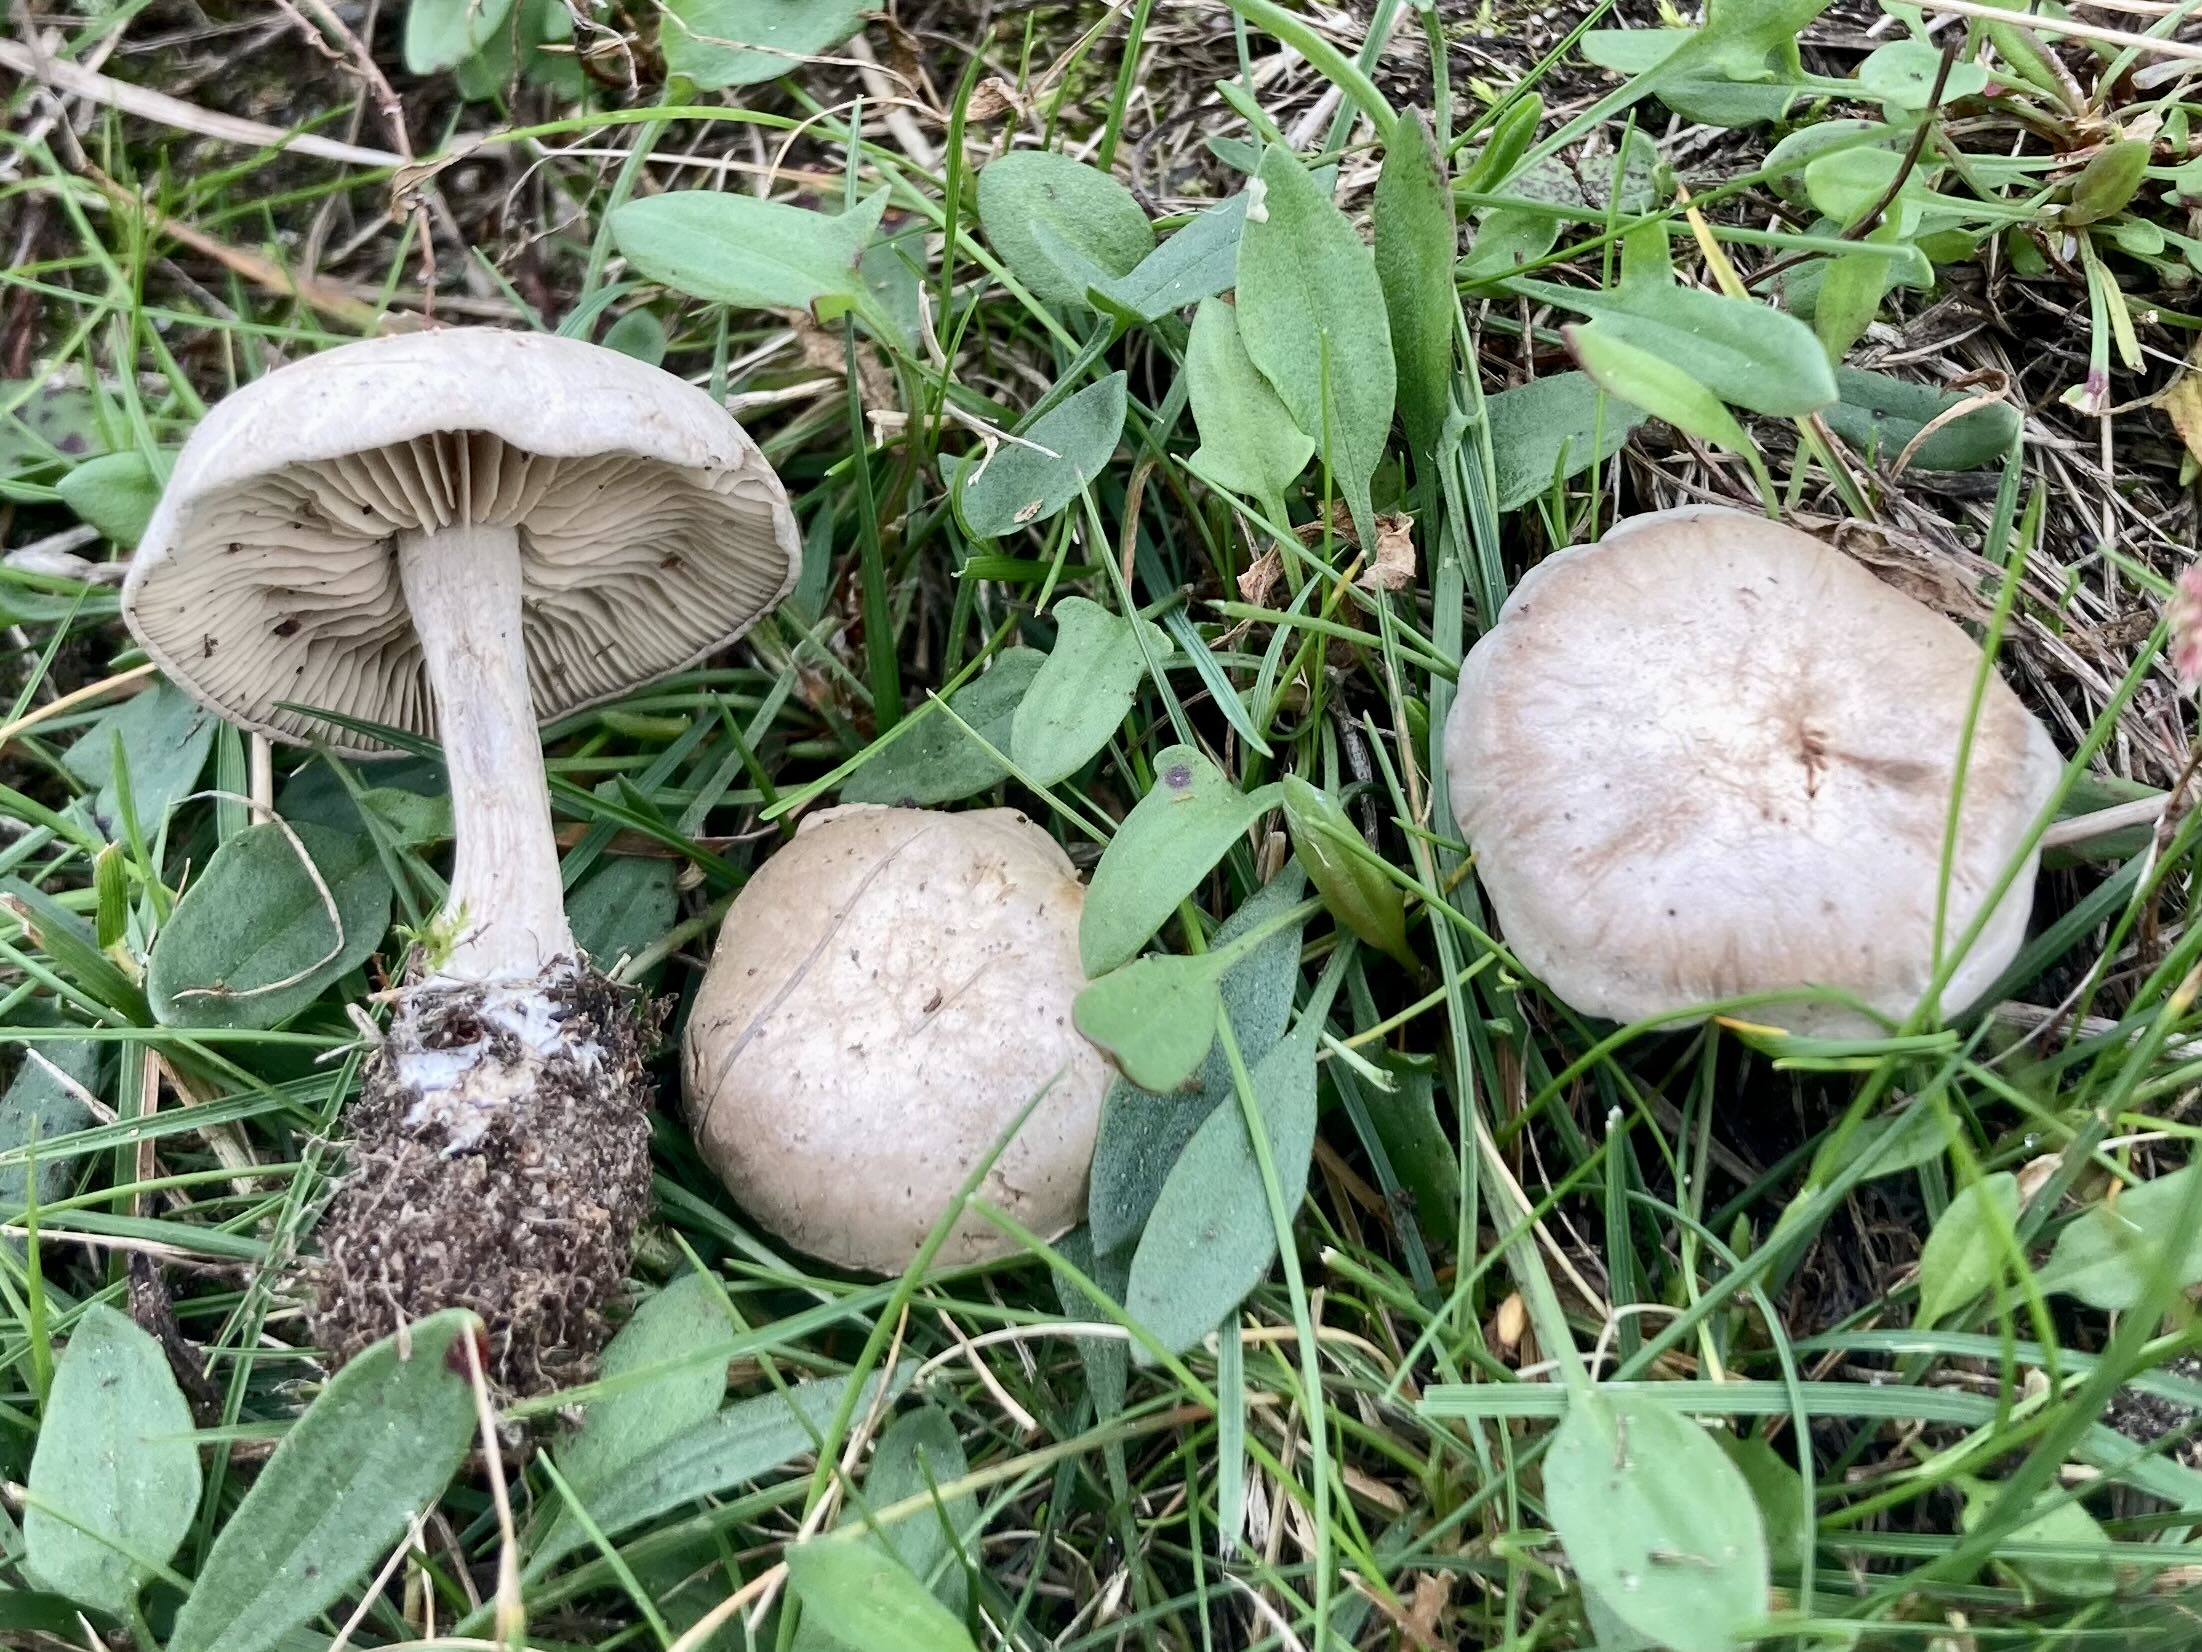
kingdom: Fungi
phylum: Basidiomycota
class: Agaricomycetes
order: Agaricales
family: Entolomataceae
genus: Rhodocybe
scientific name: Rhodocybe
